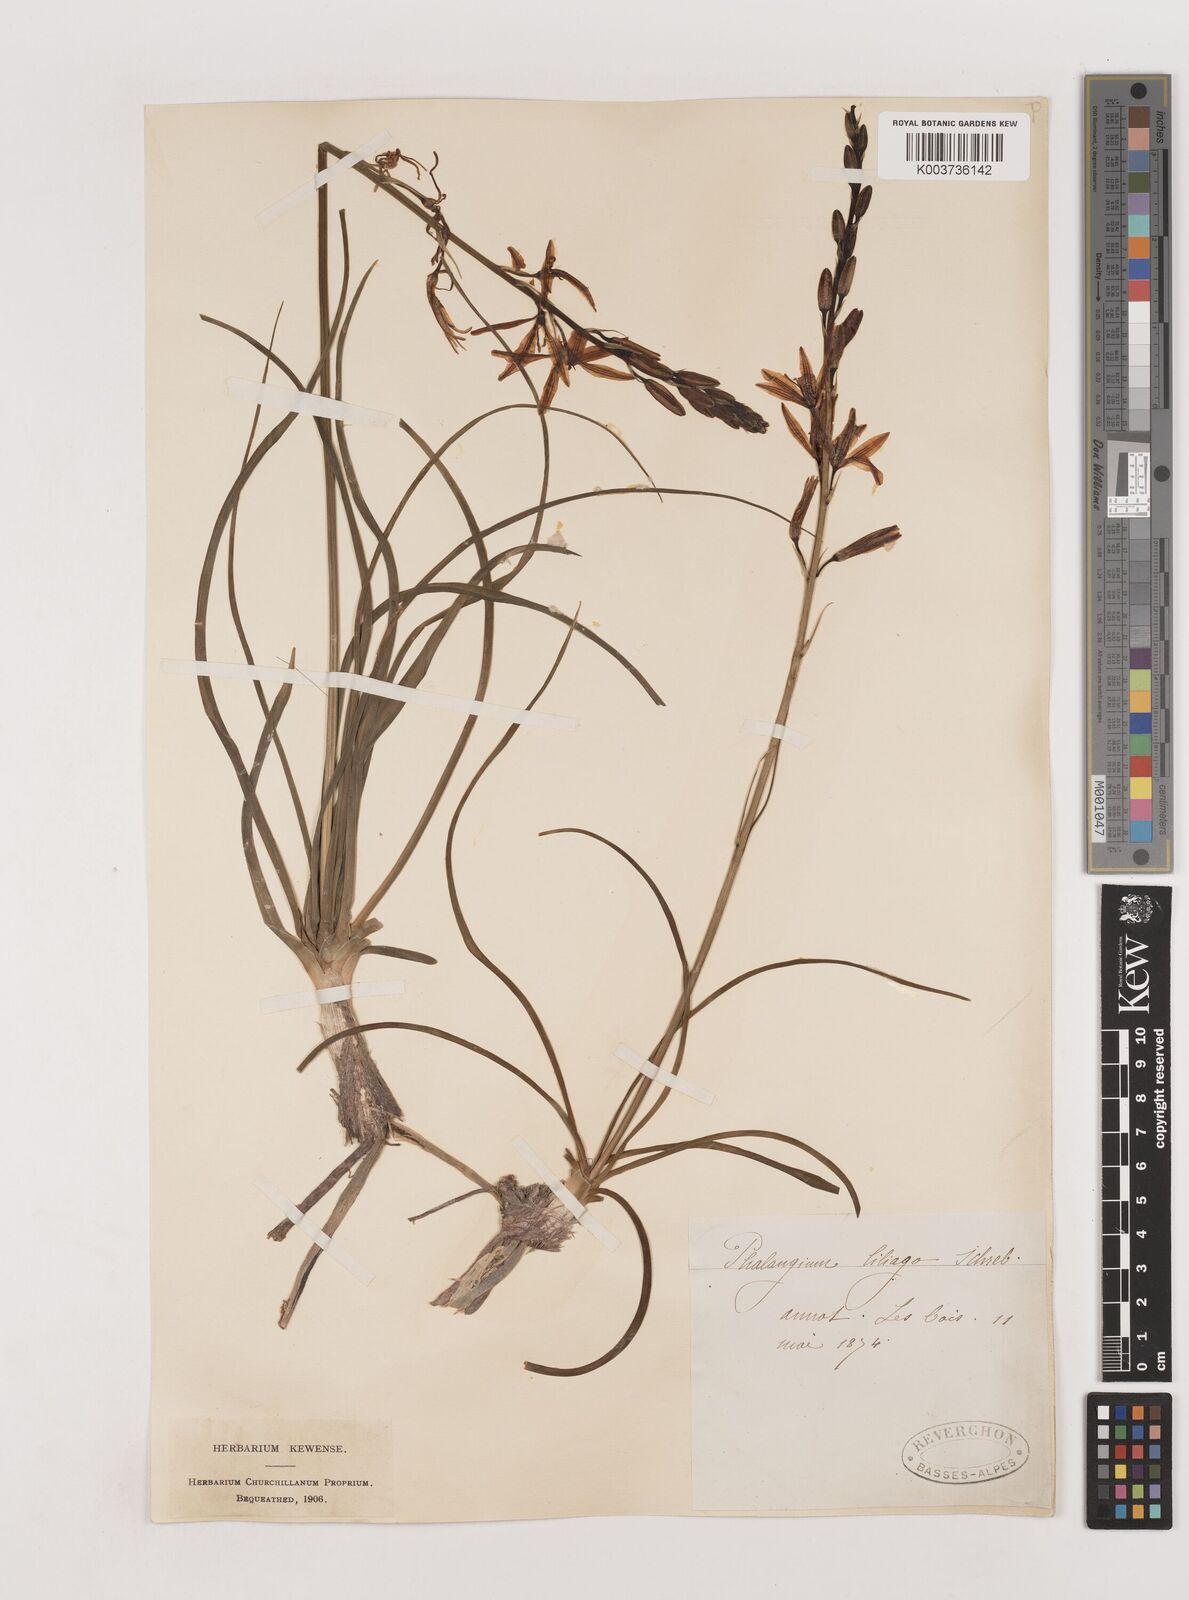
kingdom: Plantae
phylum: Tracheophyta
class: Liliopsida
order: Asparagales
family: Asparagaceae
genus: Anthericum
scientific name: Anthericum liliago
